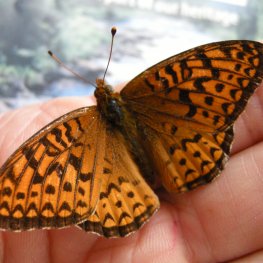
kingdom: Animalia
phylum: Arthropoda
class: Insecta
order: Lepidoptera
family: Nymphalidae
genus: Speyeria
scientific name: Speyeria atlantis
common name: Atlantis Fritillary
